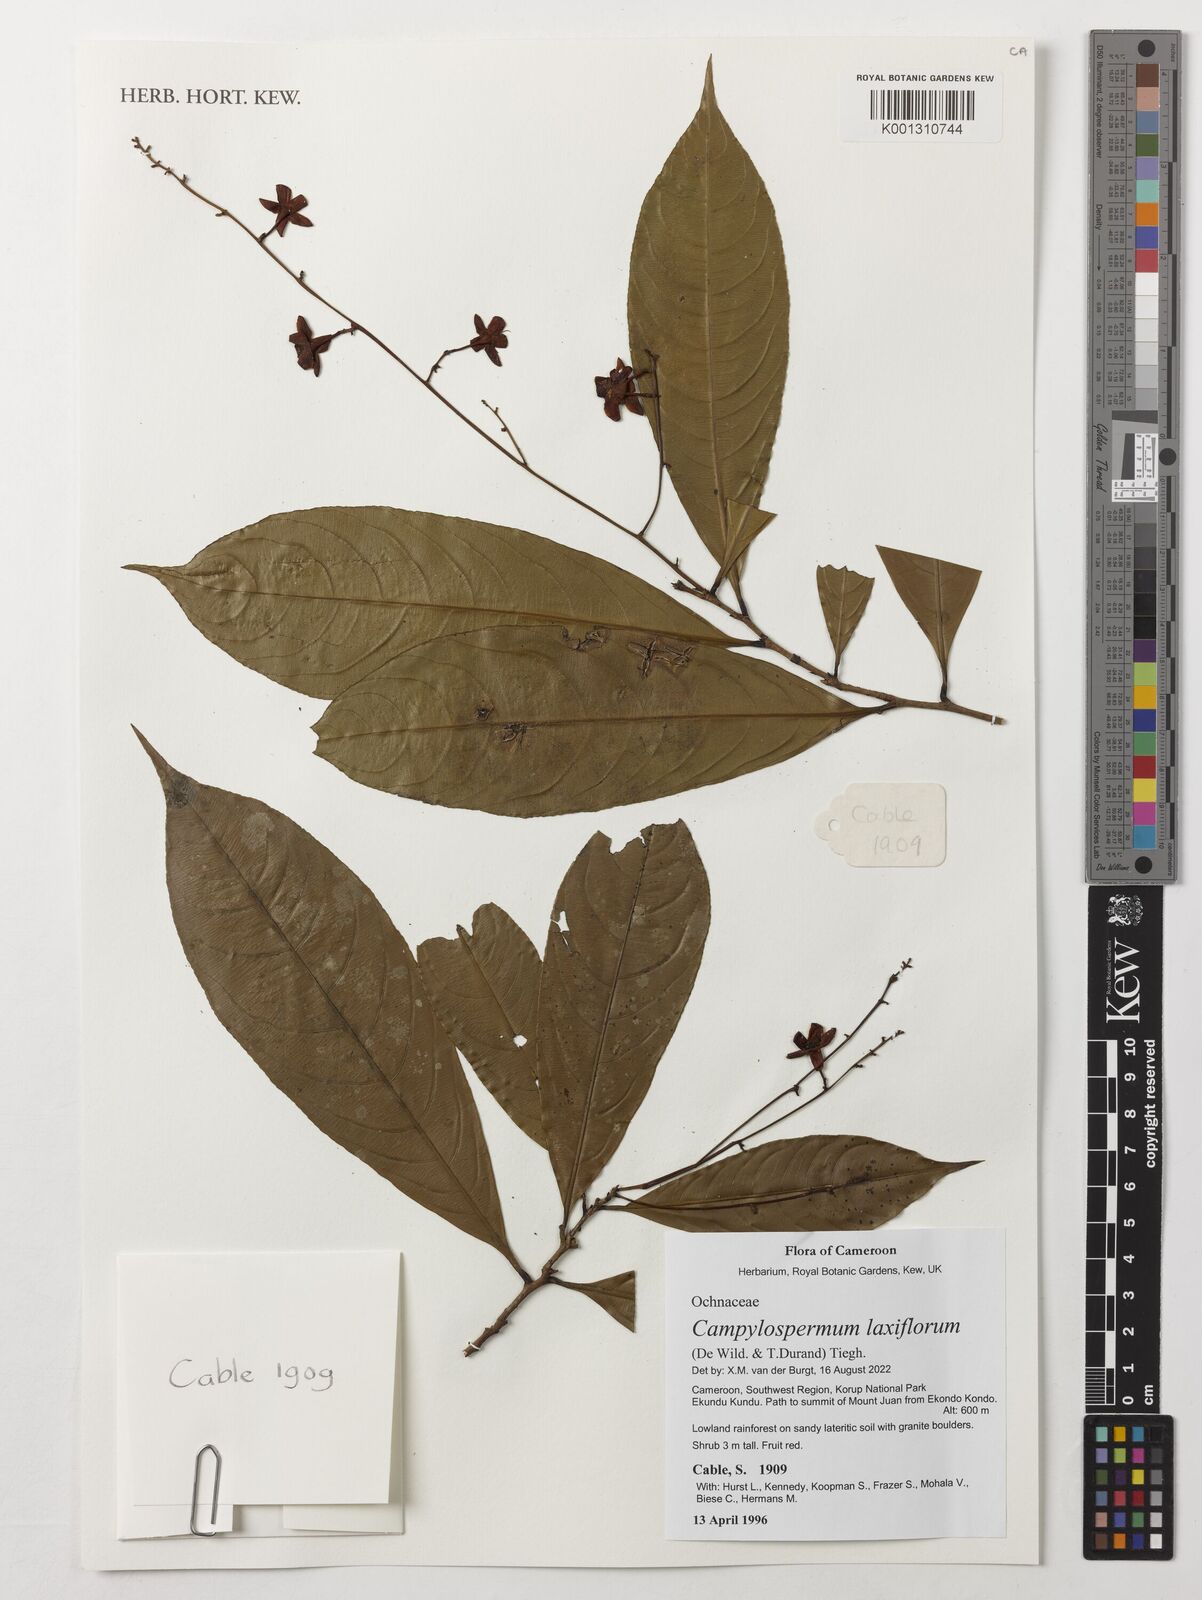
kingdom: Plantae
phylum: Tracheophyta
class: Magnoliopsida
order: Malpighiales
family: Ochnaceae
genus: Campylospermum
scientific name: Campylospermum laxiflorum
